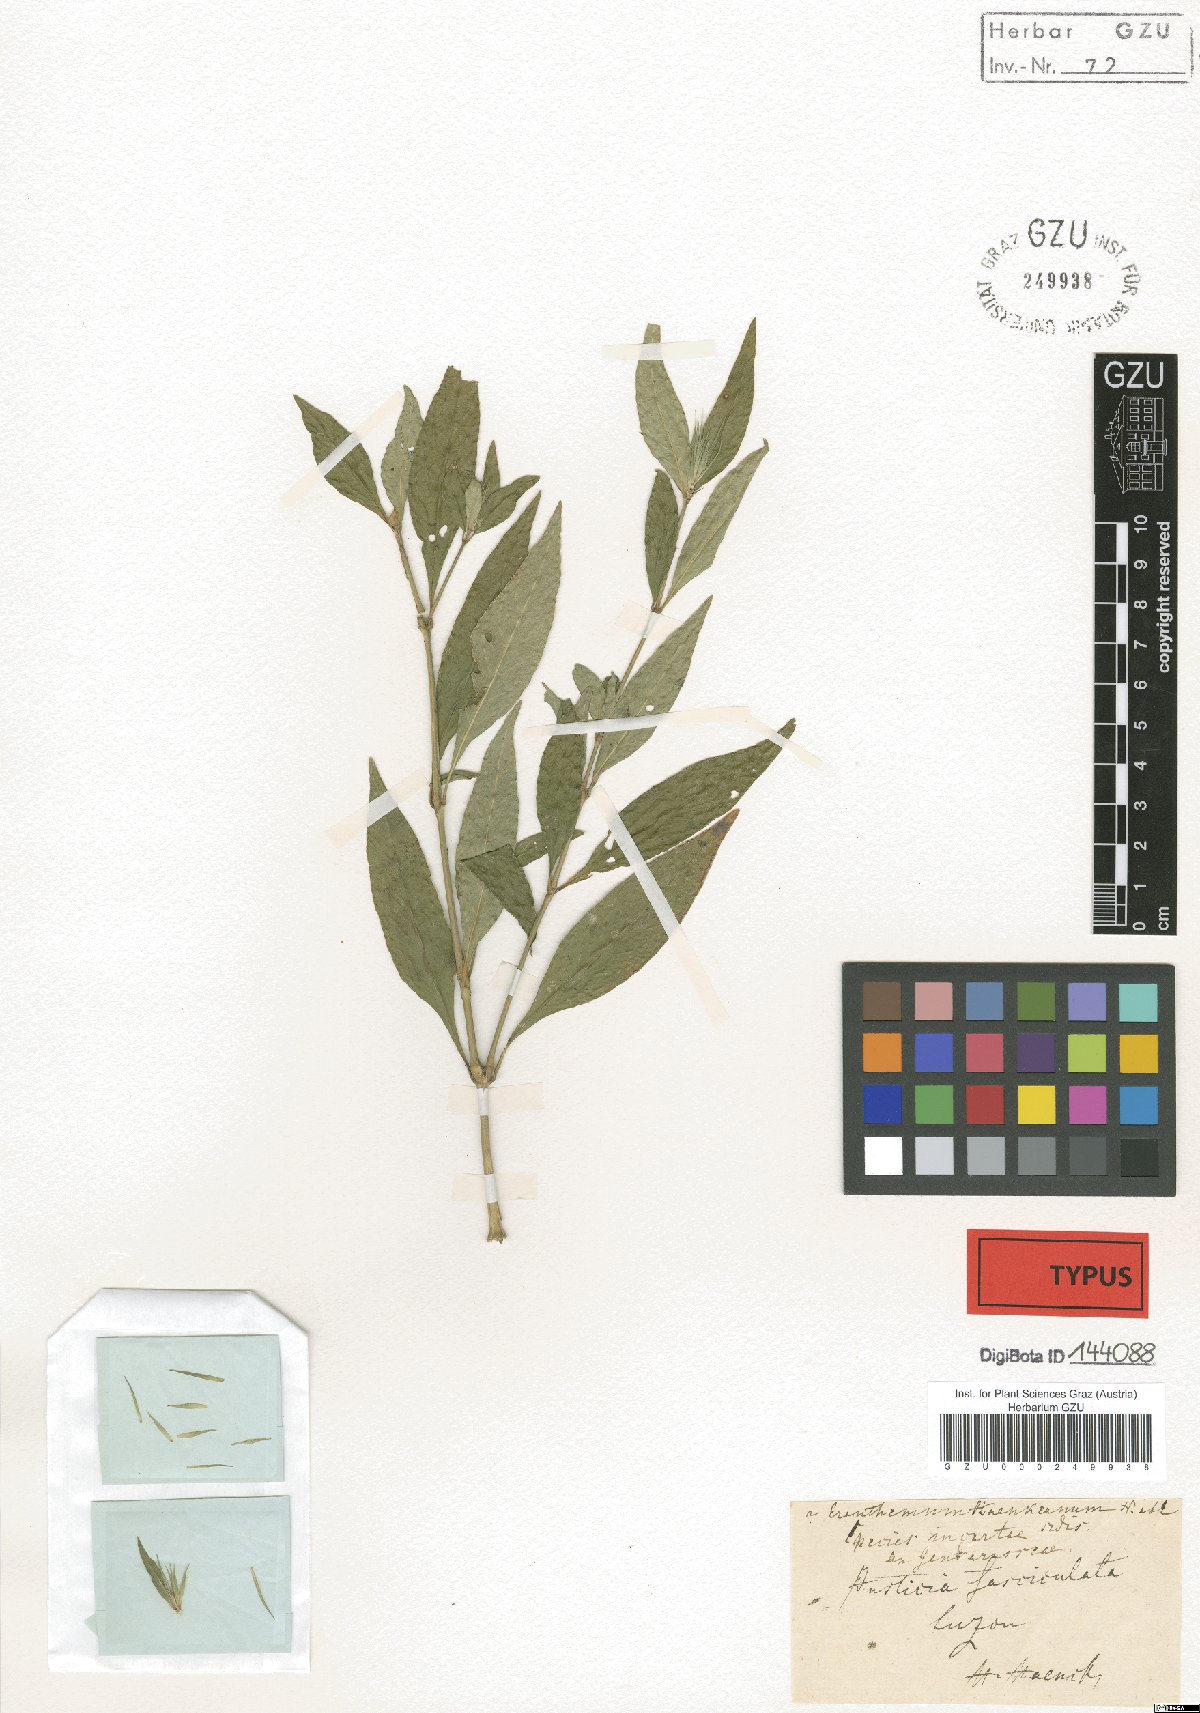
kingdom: Plantae
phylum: Tracheophyta
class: Magnoliopsida
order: Lamiales
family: Acanthaceae
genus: Pseuderanthemum
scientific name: Pseuderanthemum bicolor
